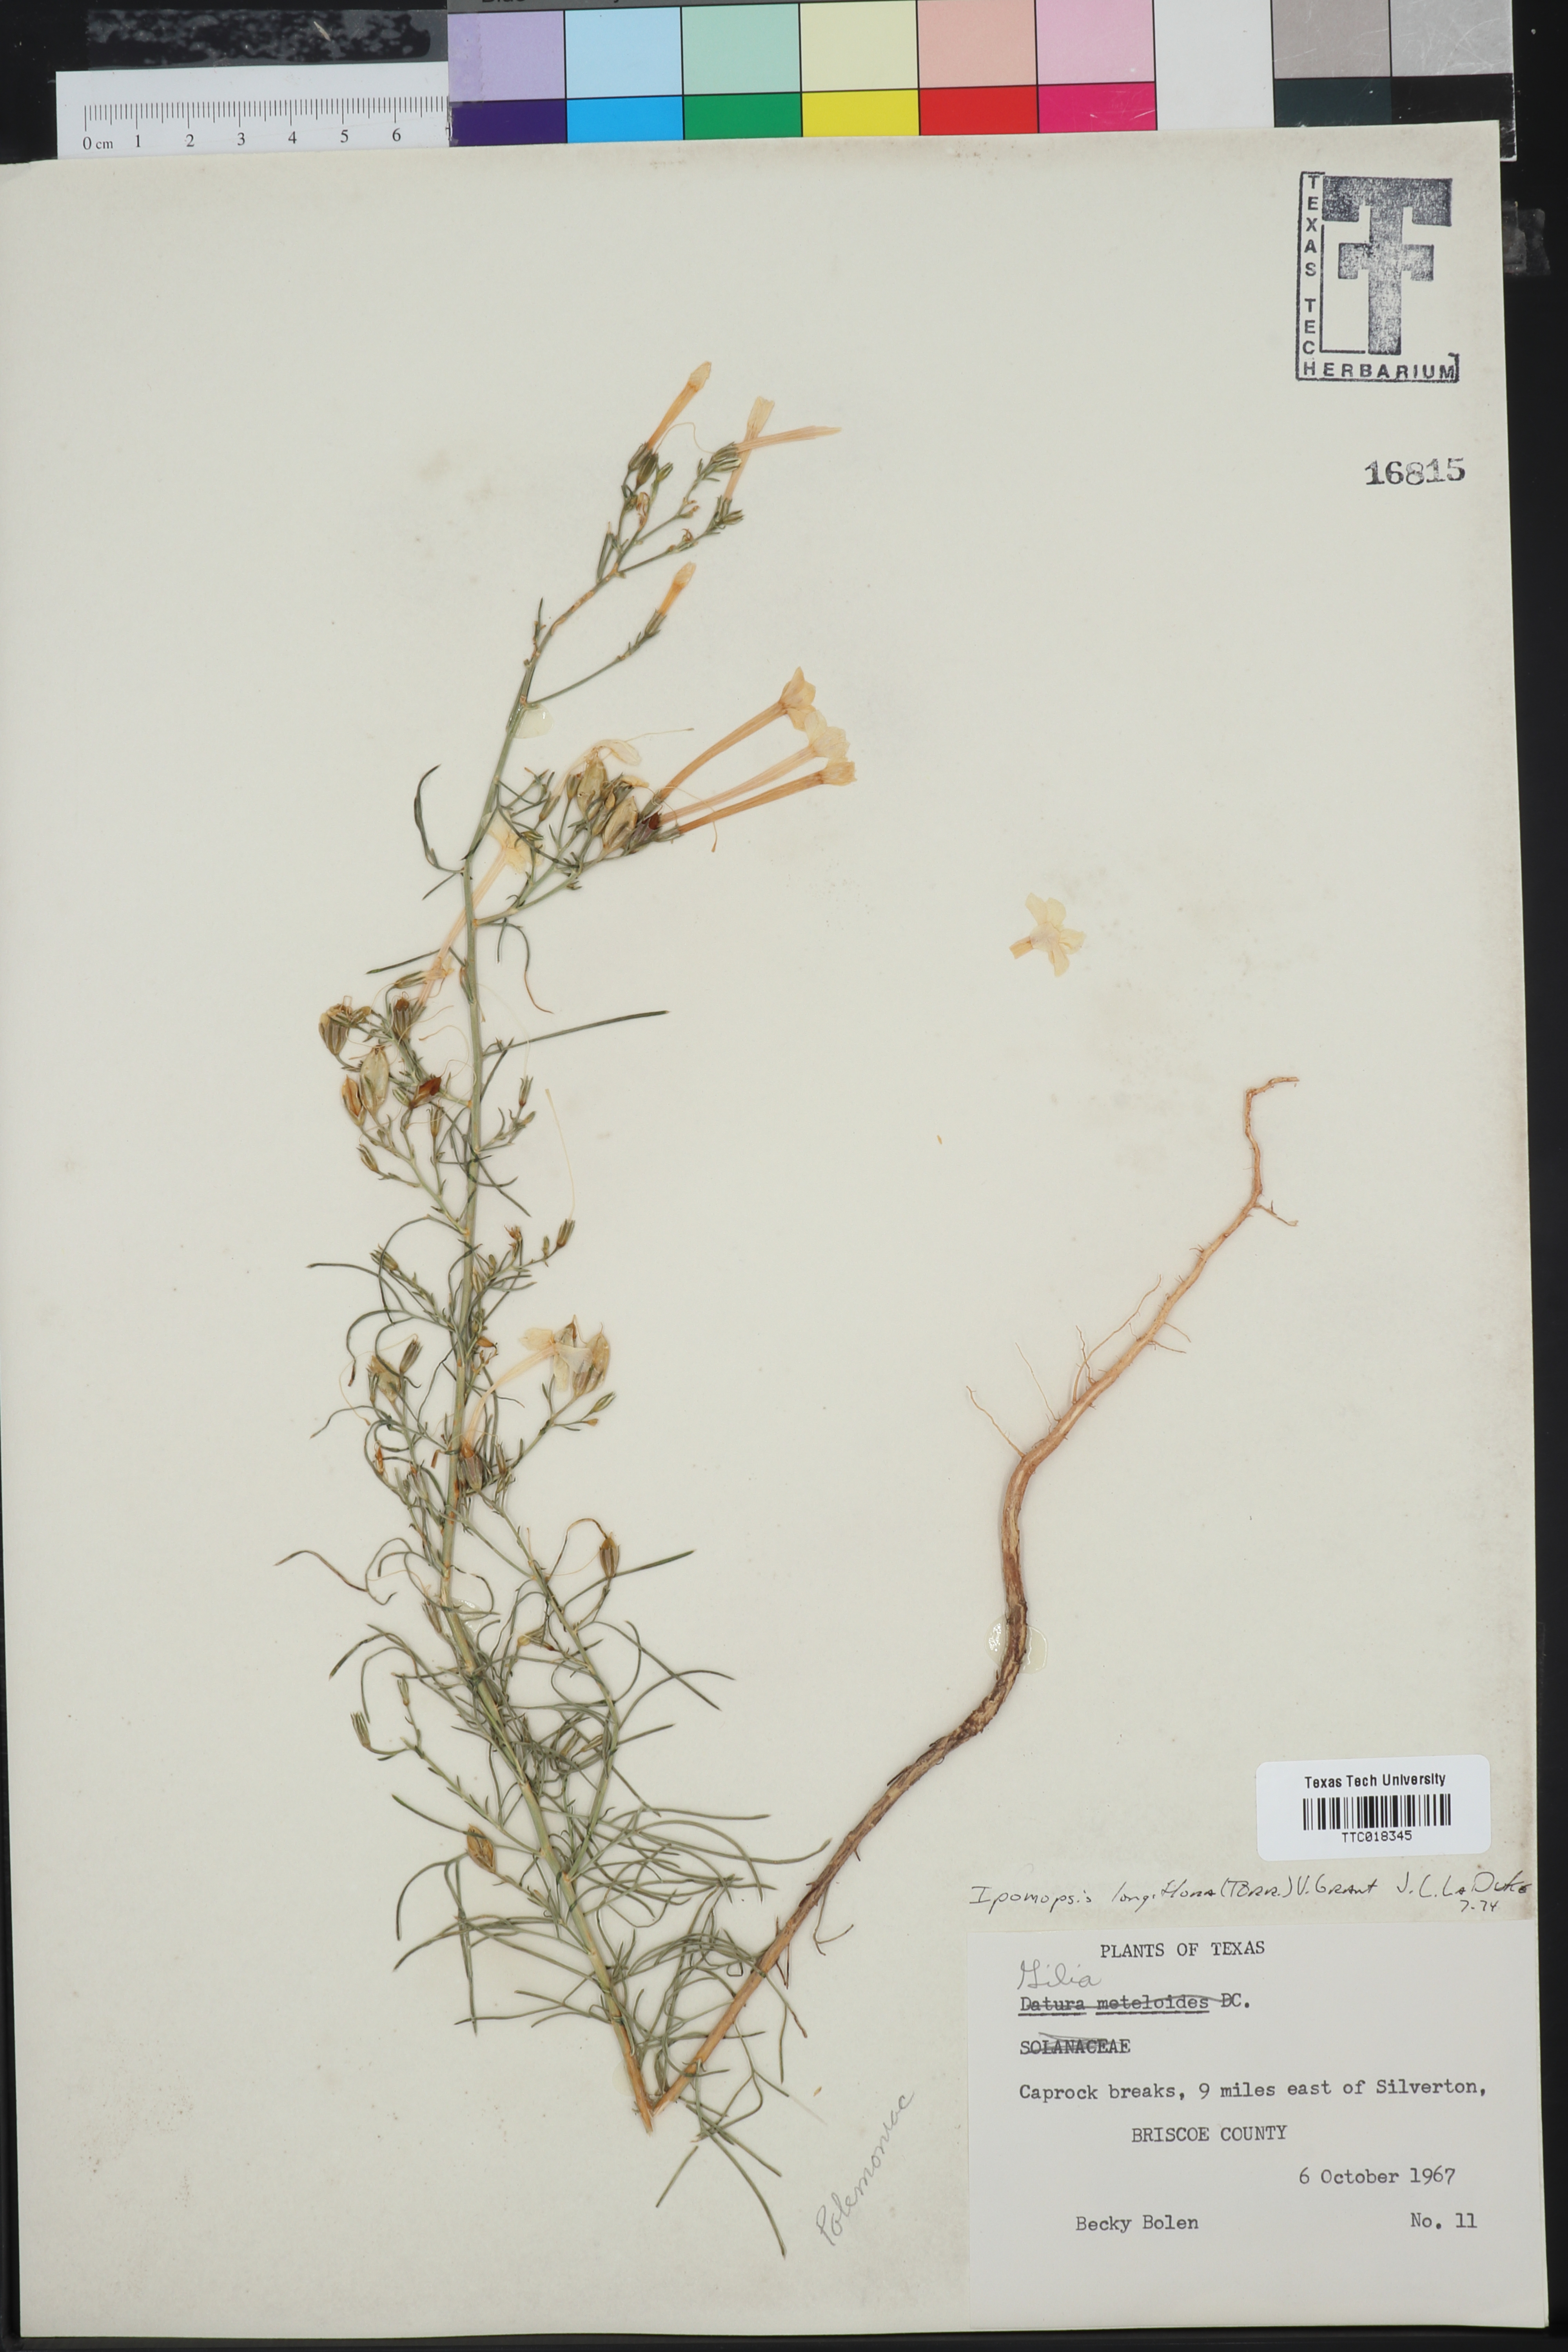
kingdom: Plantae
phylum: Tracheophyta
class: Magnoliopsida
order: Ericales
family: Polemoniaceae
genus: Ipomopsis
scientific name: Ipomopsis longiflora
